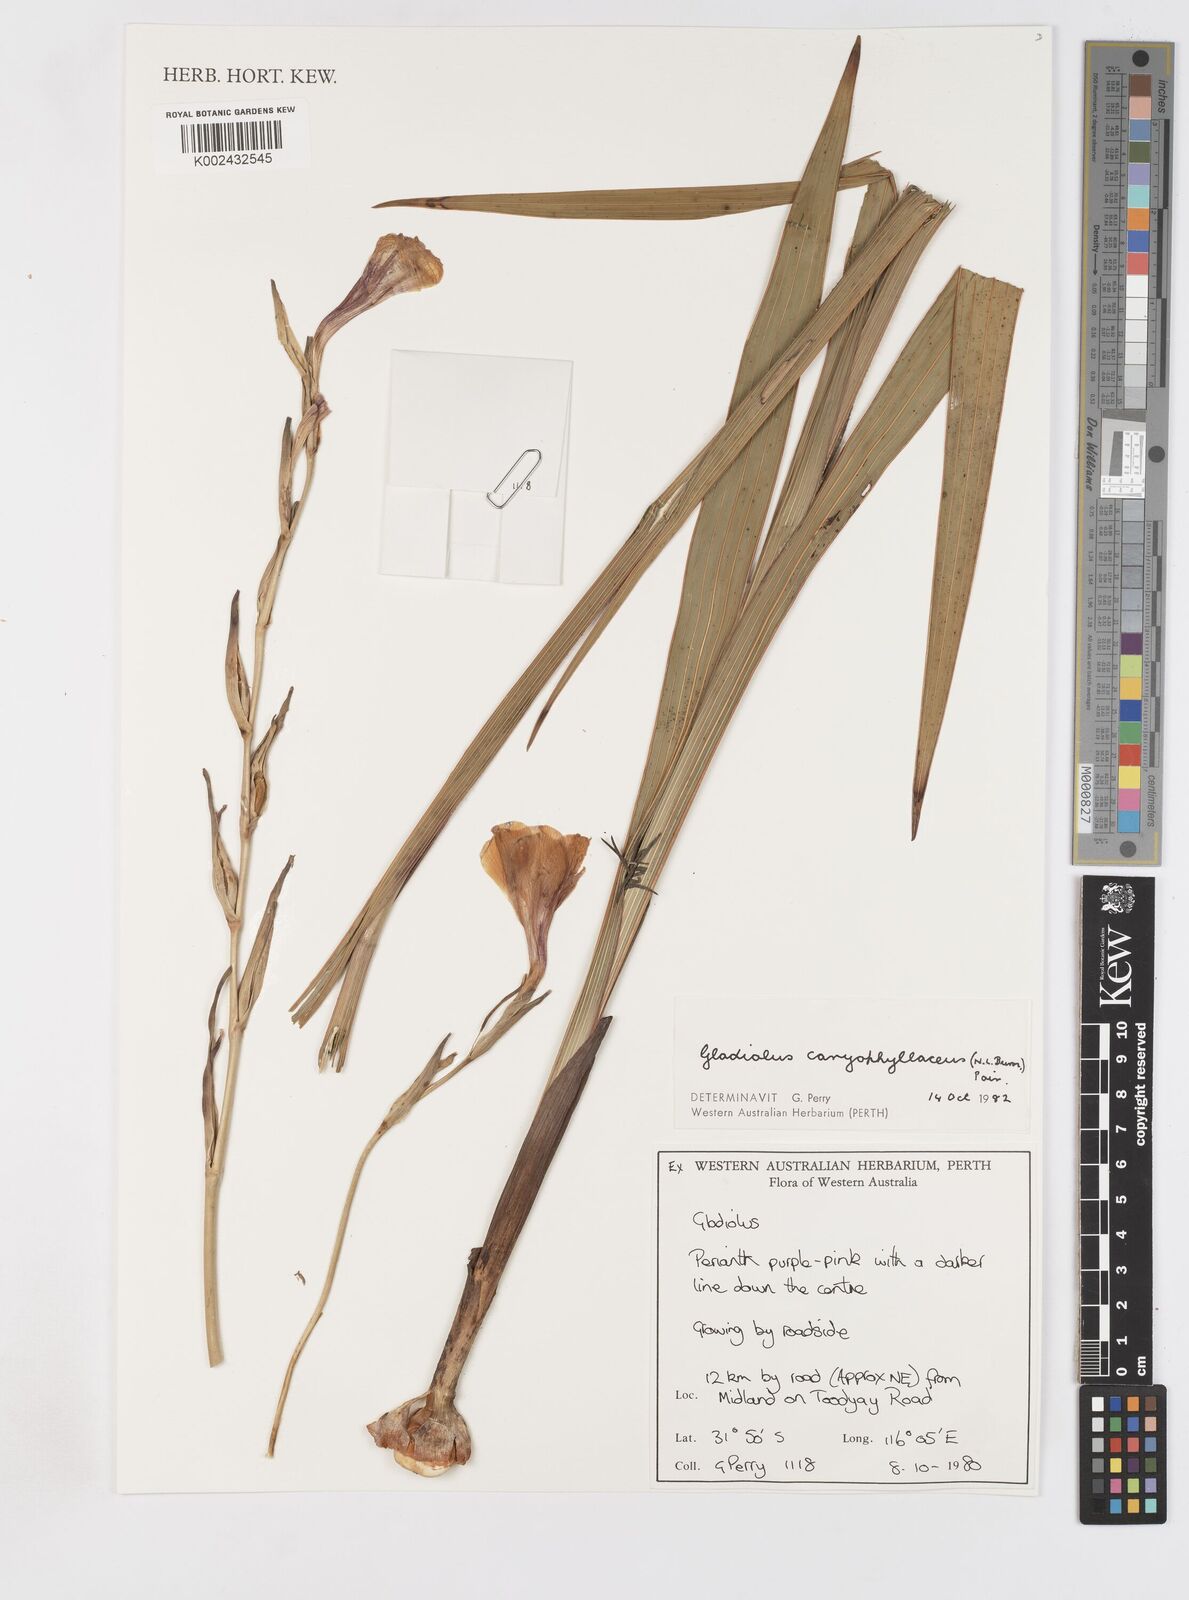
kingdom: Plantae
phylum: Tracheophyta
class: Liliopsida
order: Asparagales
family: Iridaceae
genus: Gladiolus
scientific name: Gladiolus caryophyllaceus
